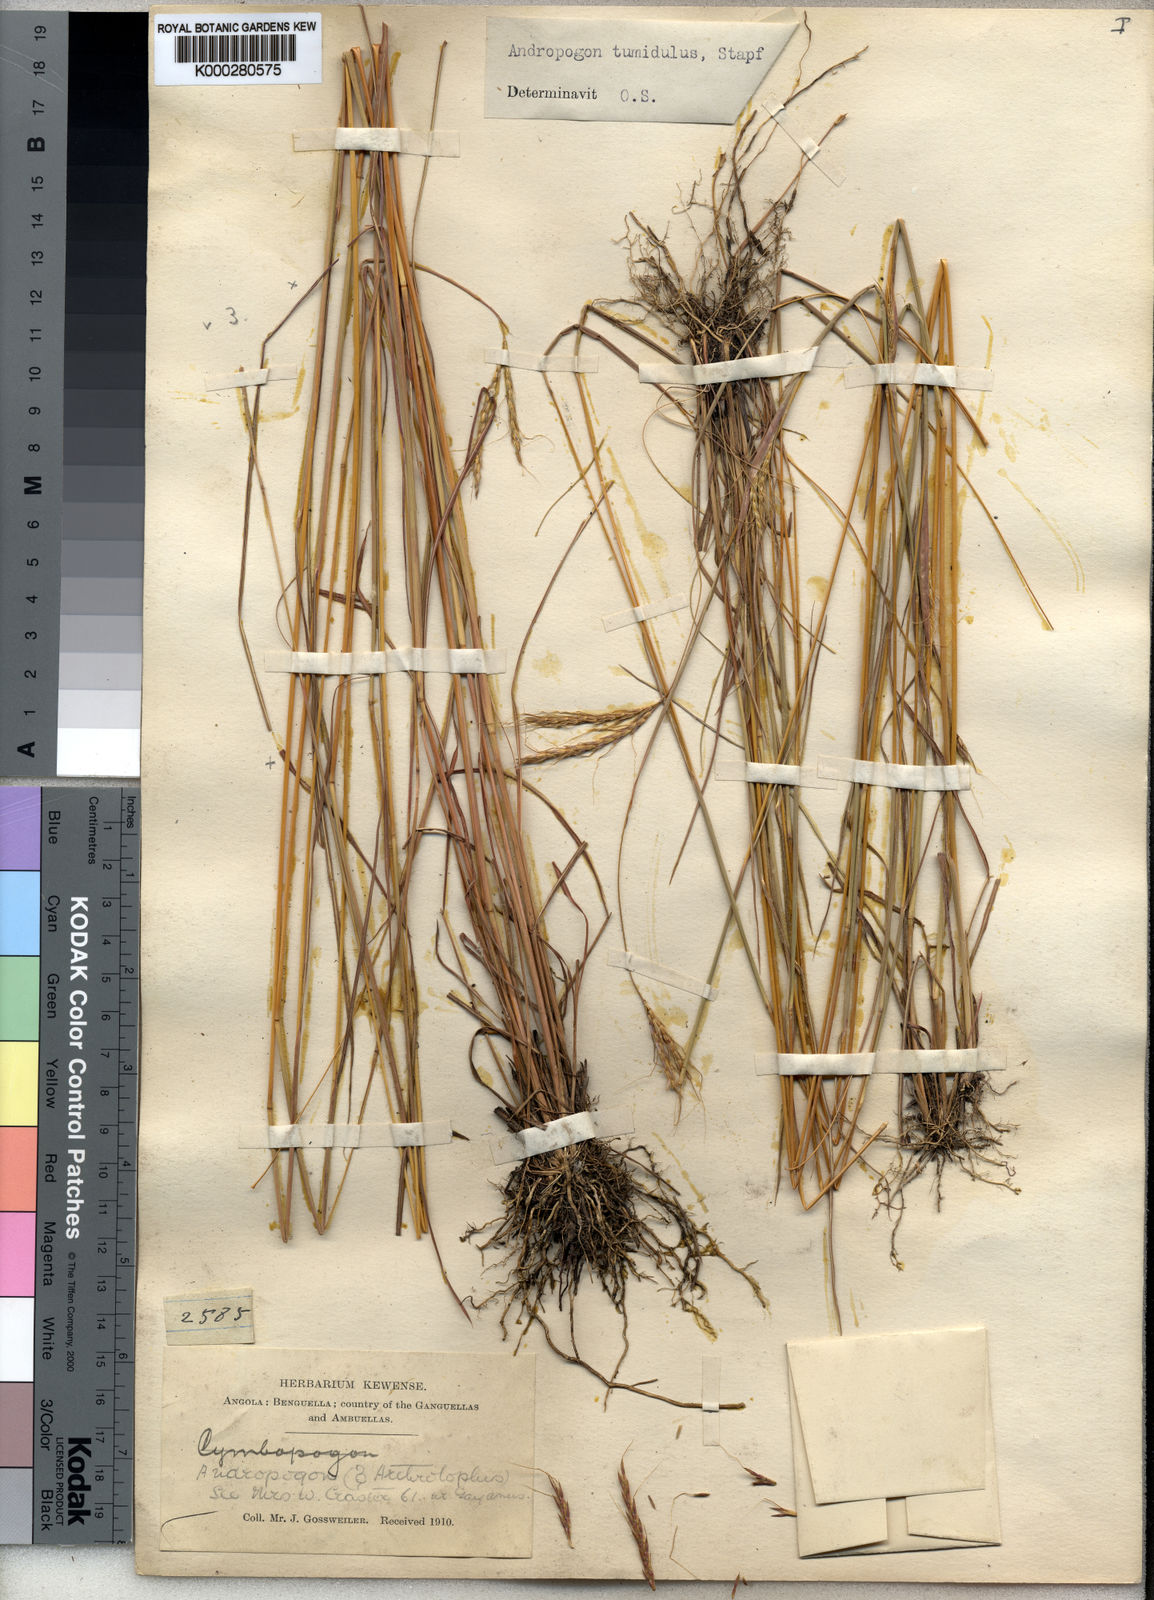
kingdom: Plantae
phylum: Tracheophyta
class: Liliopsida
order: Poales
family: Poaceae
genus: Andropogon
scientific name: Andropogon perligulatus
